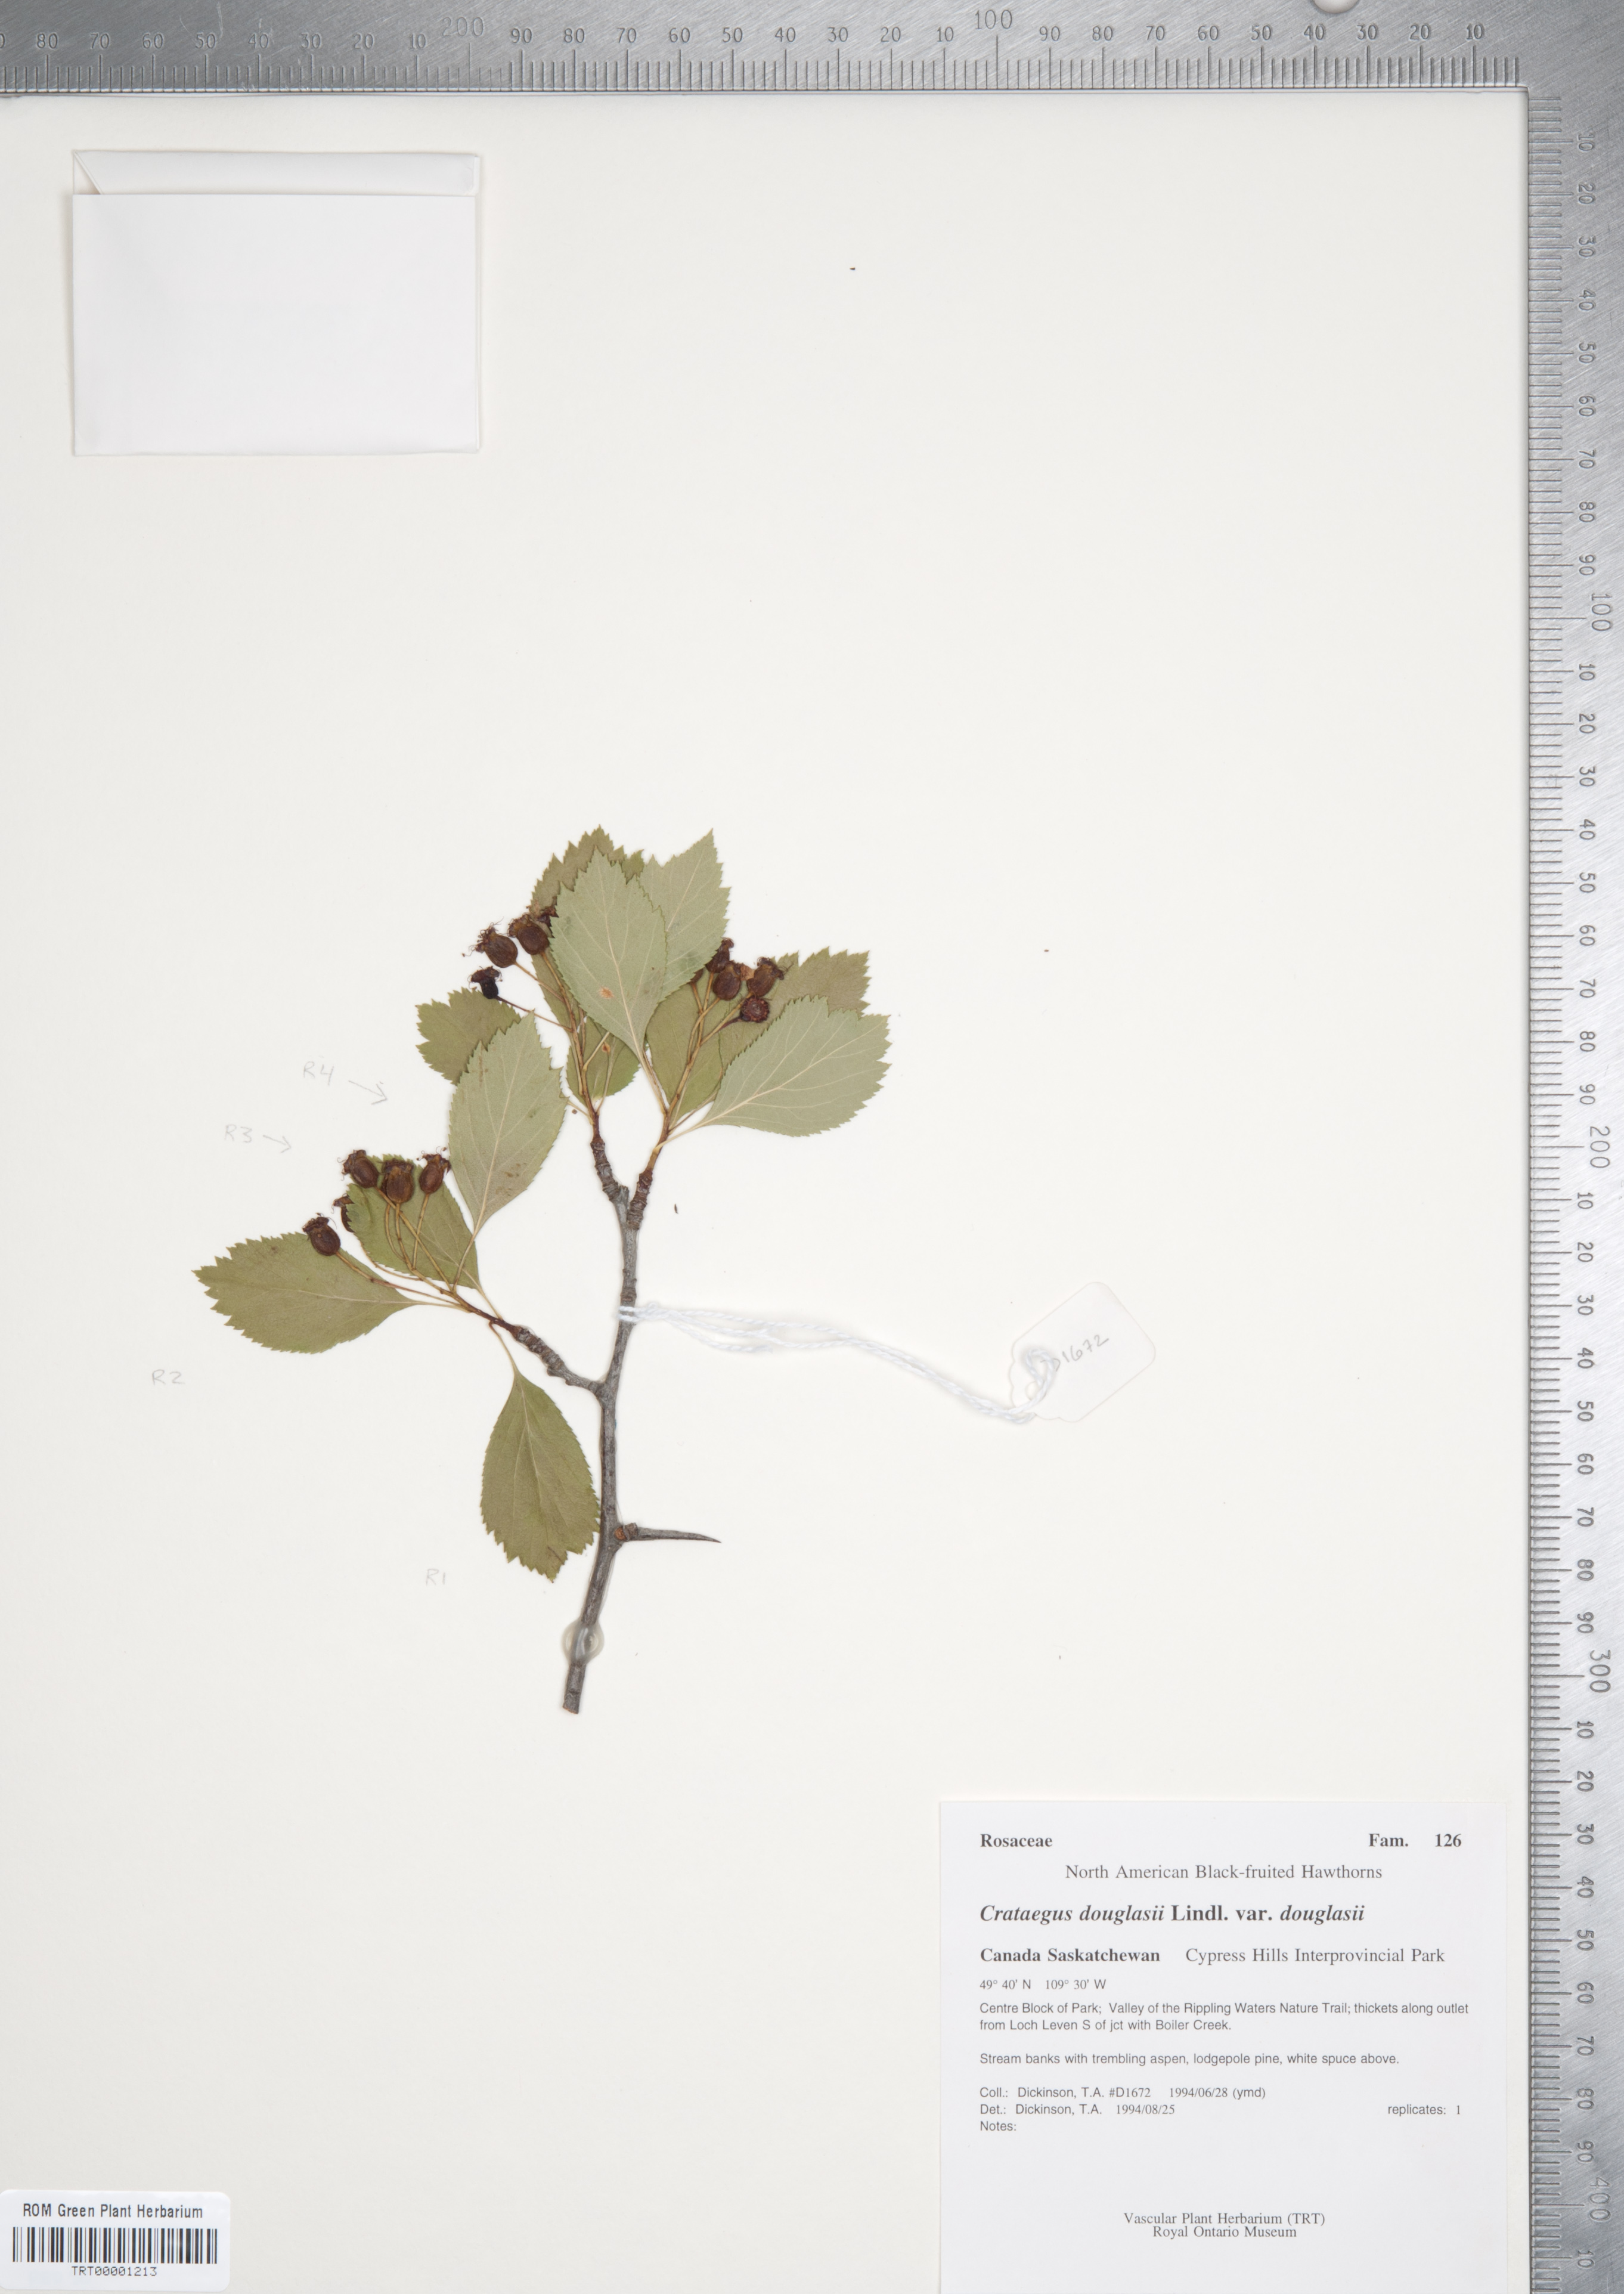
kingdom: Plantae
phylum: Tracheophyta
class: Magnoliopsida
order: Rosales
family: Rosaceae
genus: Crataegus
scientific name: Crataegus douglasii
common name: Black hawthorn
